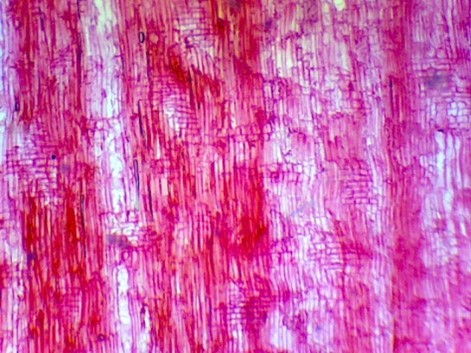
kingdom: Plantae
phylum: Tracheophyta
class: Magnoliopsida
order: Sapindales
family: Rutaceae
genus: Pitavia
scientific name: Pitavia punctata
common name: Pitao
